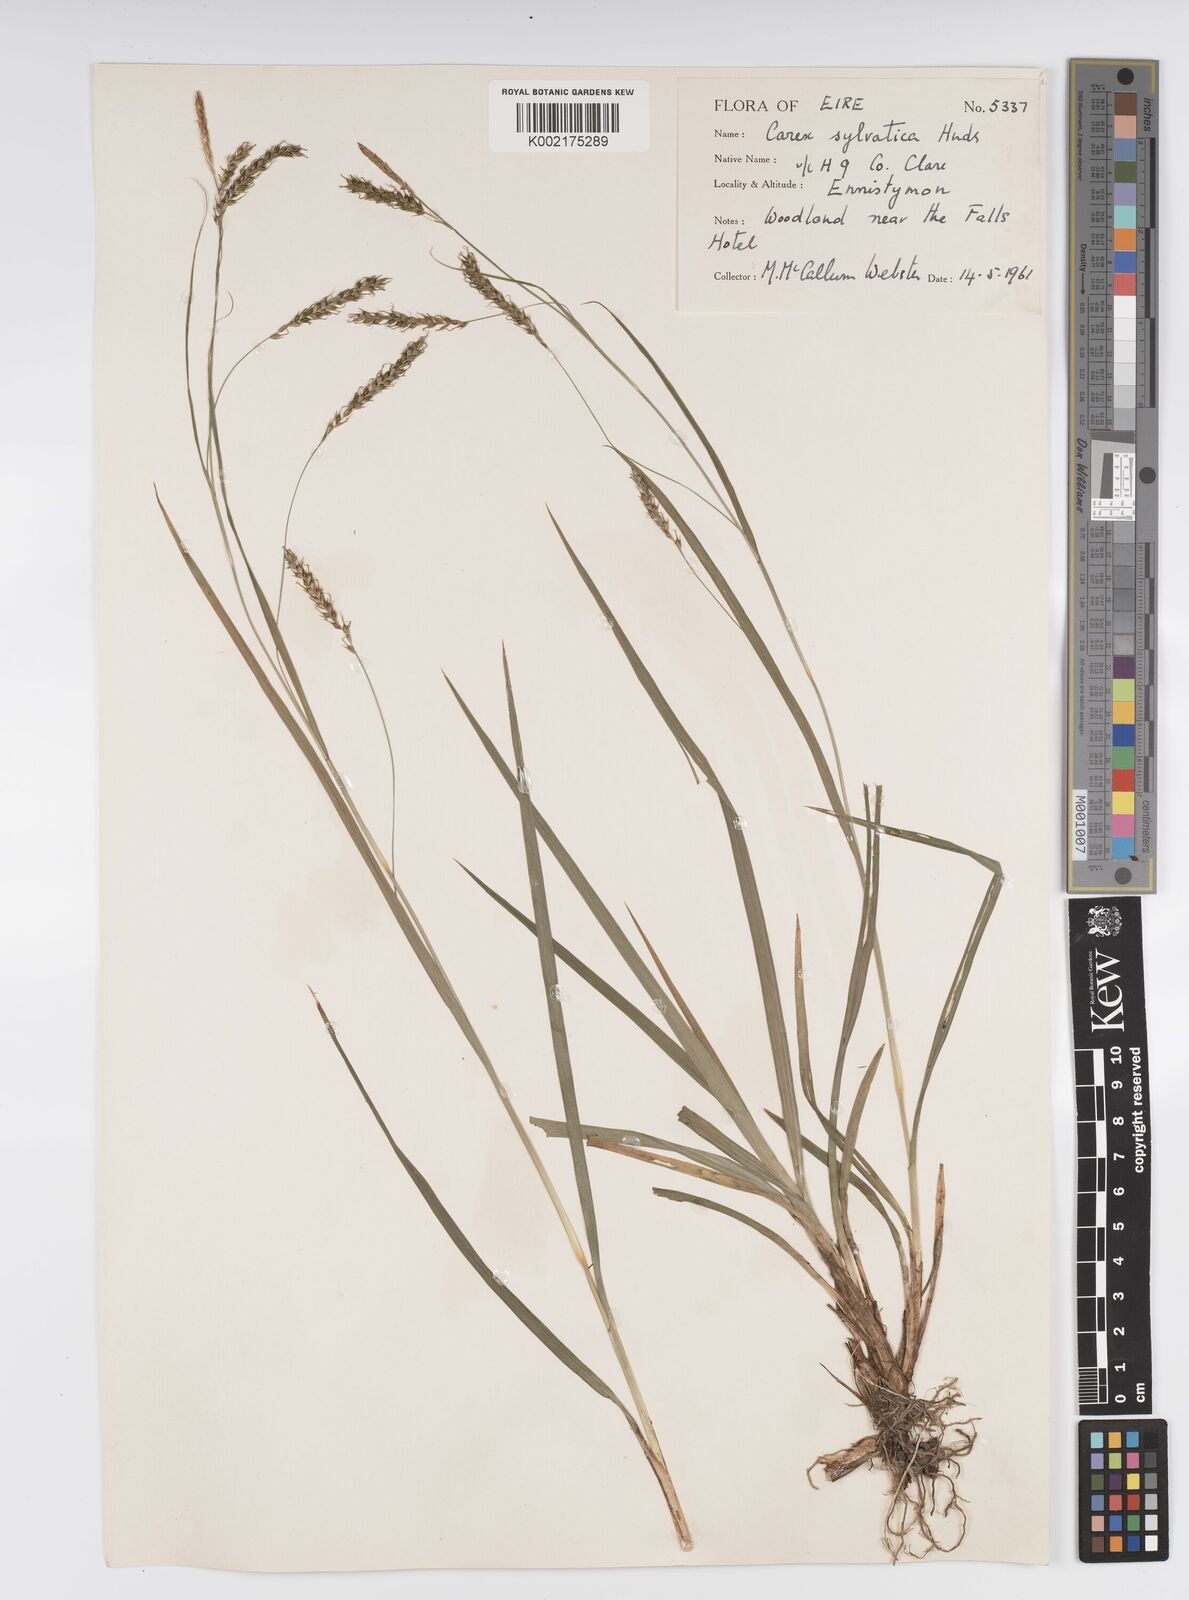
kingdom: Plantae
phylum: Tracheophyta
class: Liliopsida
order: Poales
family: Cyperaceae
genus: Carex
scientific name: Carex sylvatica
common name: Wood-sedge
